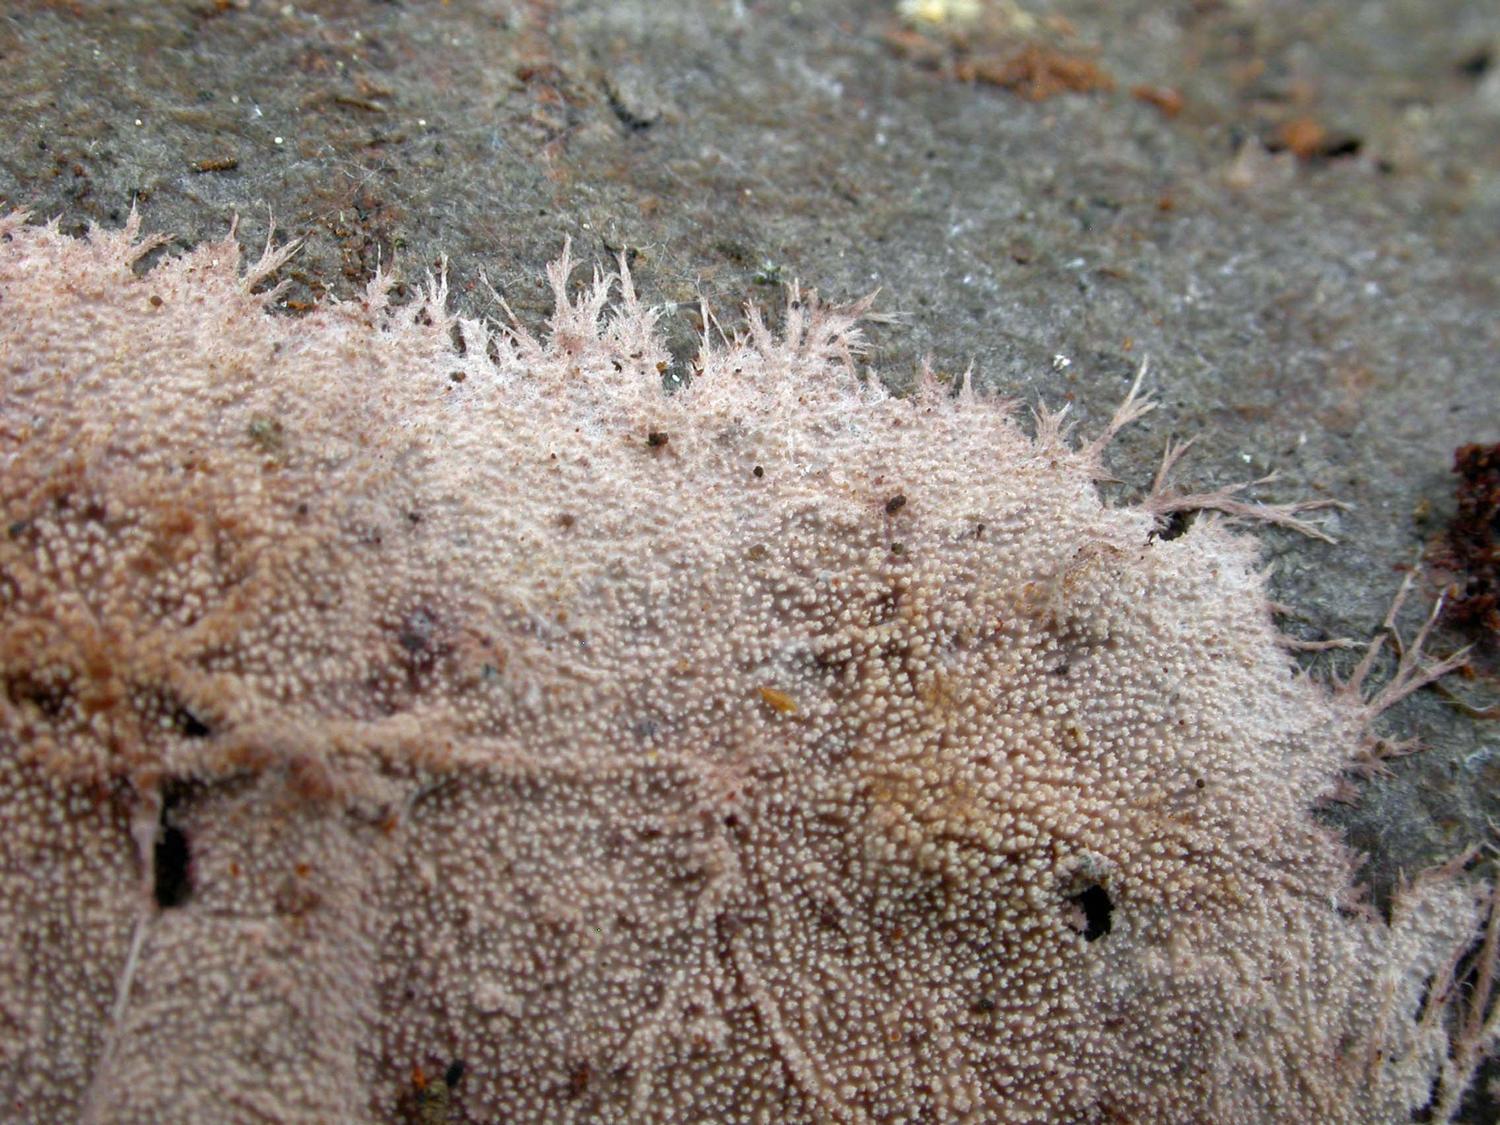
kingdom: Fungi
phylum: Basidiomycota
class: Agaricomycetes
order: Polyporales
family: Steccherinaceae
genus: Steccherinum
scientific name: Steccherinum fimbriatum
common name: trådet skønpig
